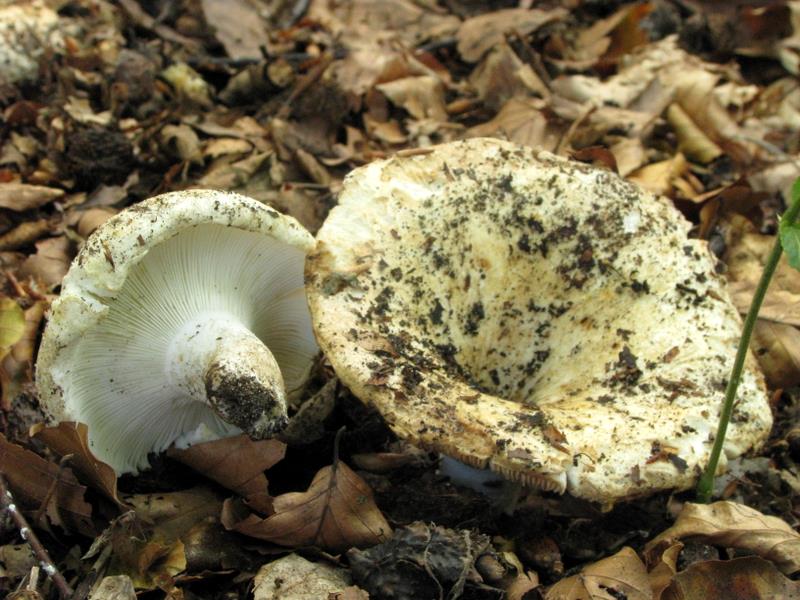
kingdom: Fungi
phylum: Basidiomycota
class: Agaricomycetes
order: Russulales
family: Russulaceae
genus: Russula
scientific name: Russula chloroides
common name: grønhalset tragt-skørhat
